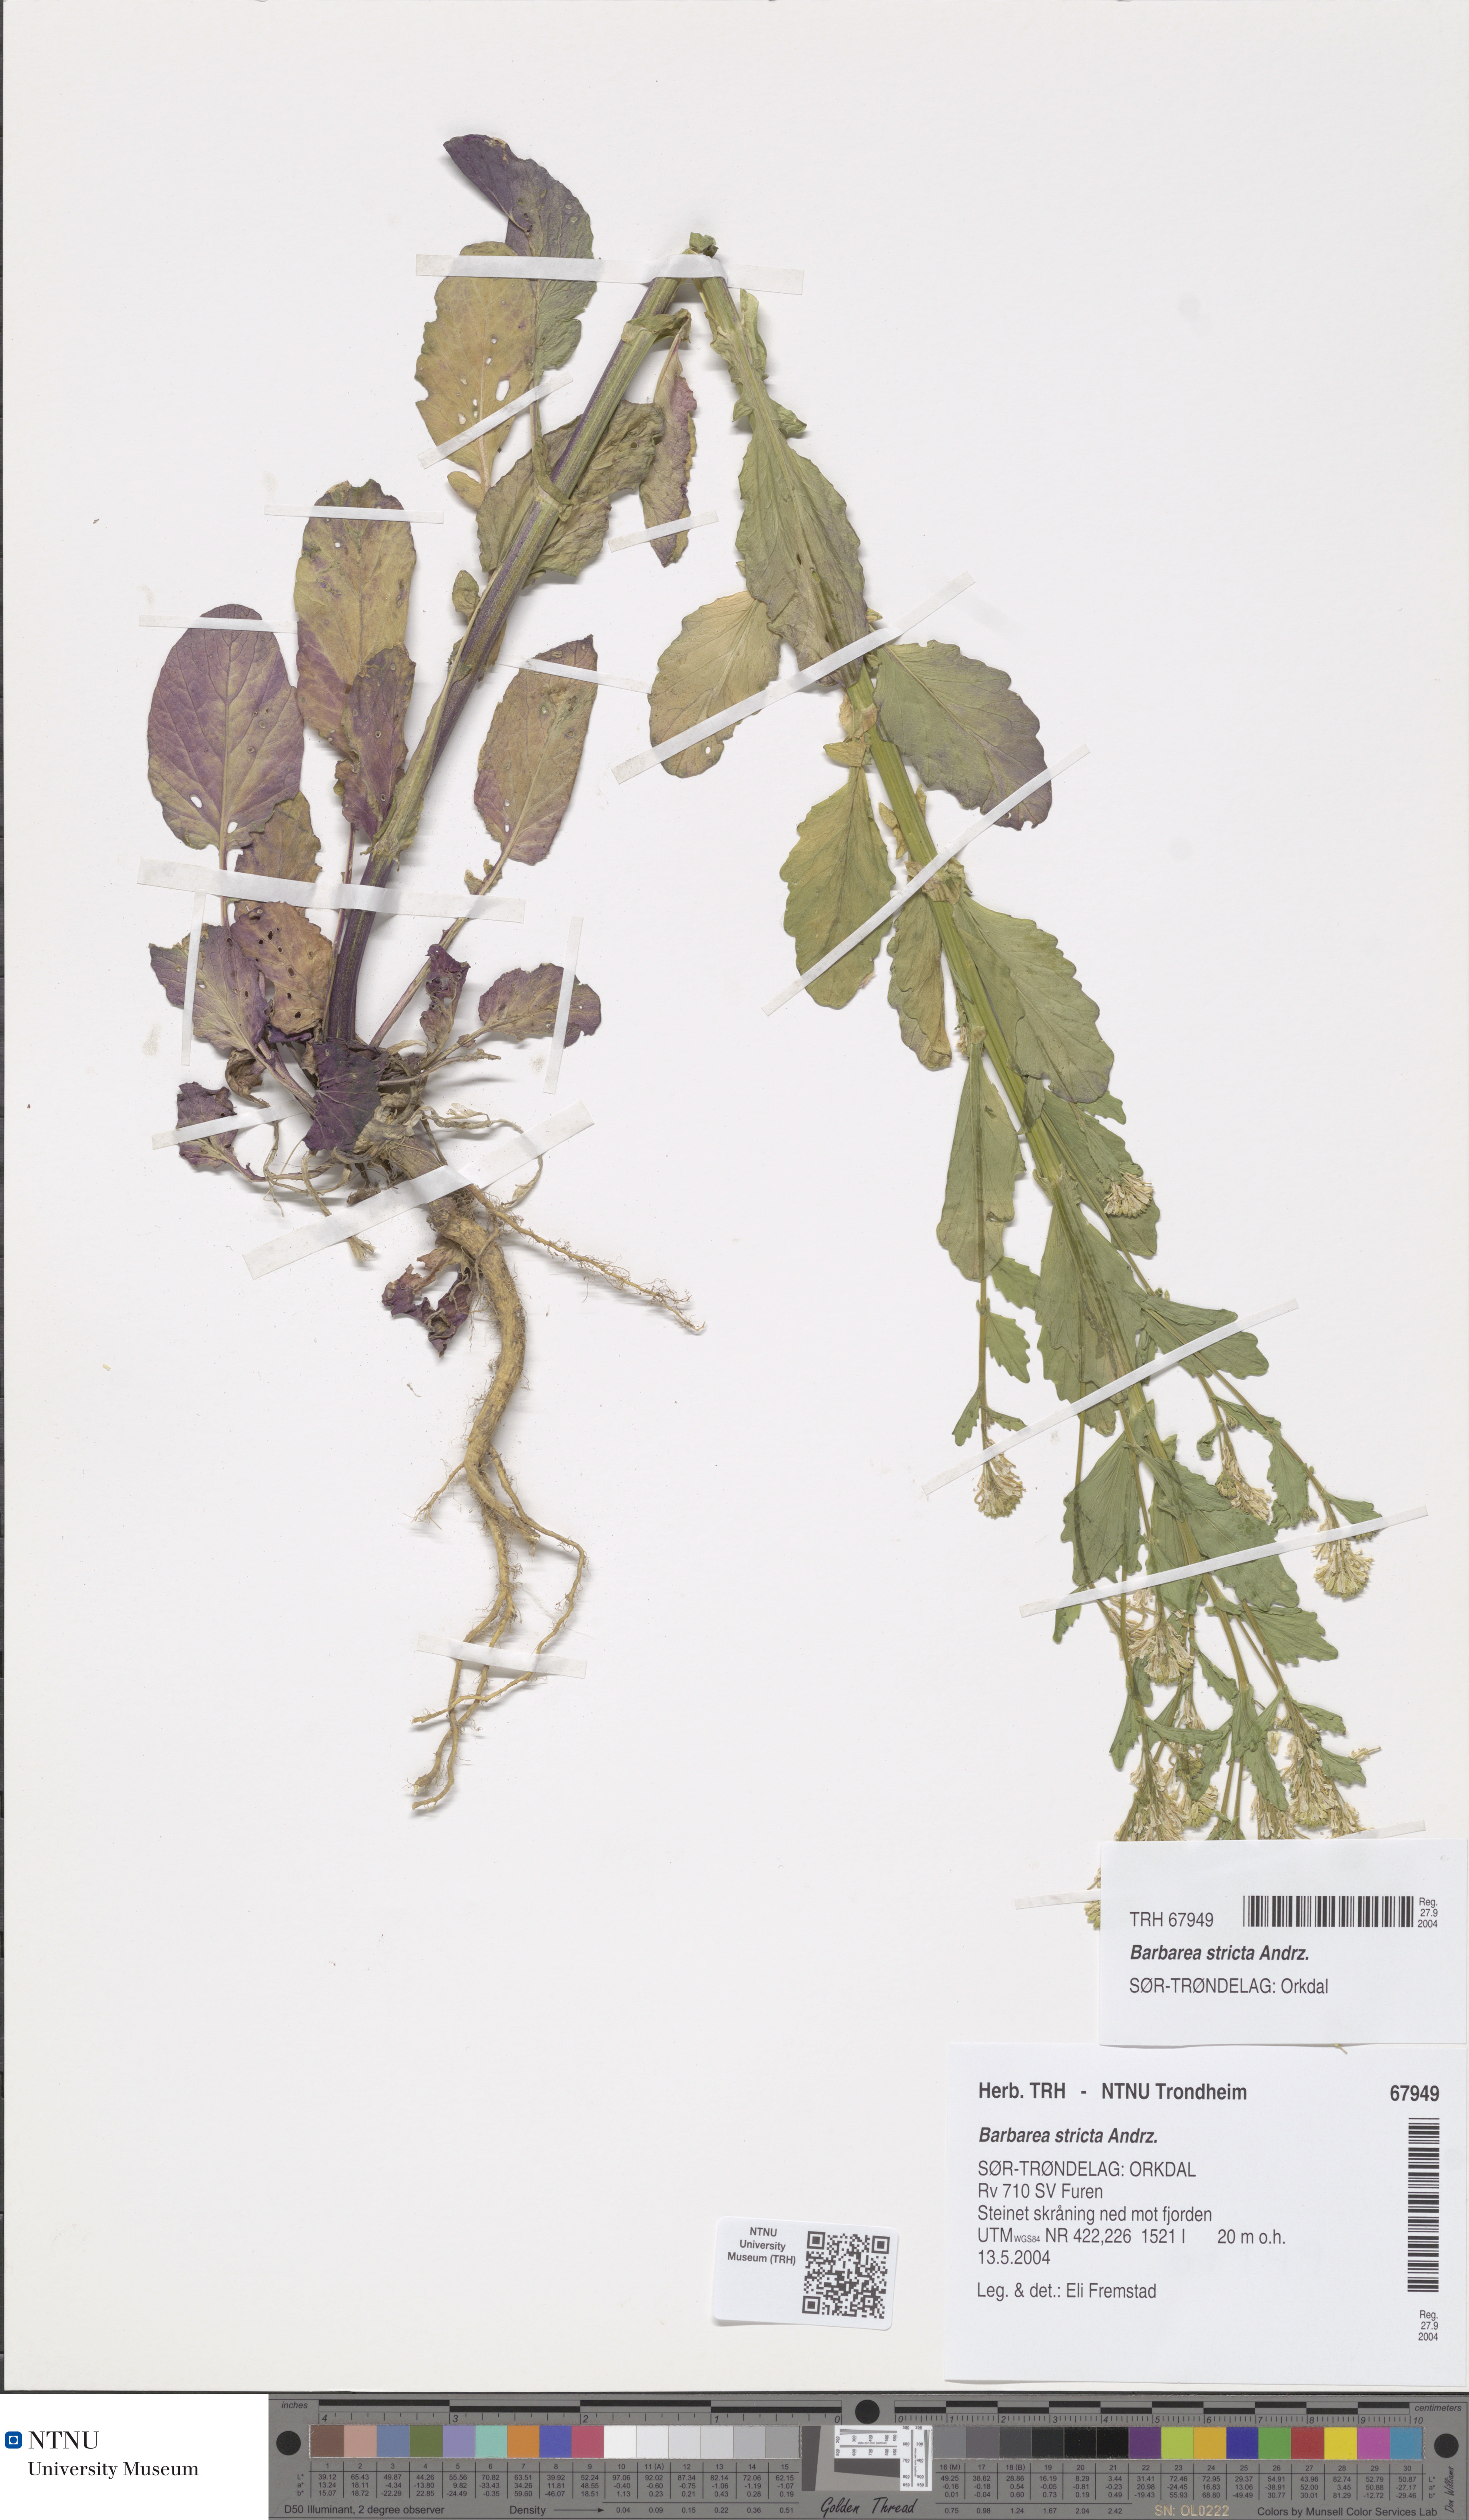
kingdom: Plantae
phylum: Tracheophyta
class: Magnoliopsida
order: Brassicales
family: Brassicaceae
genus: Barbarea
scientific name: Barbarea stricta
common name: Small-flowered winter-cress
